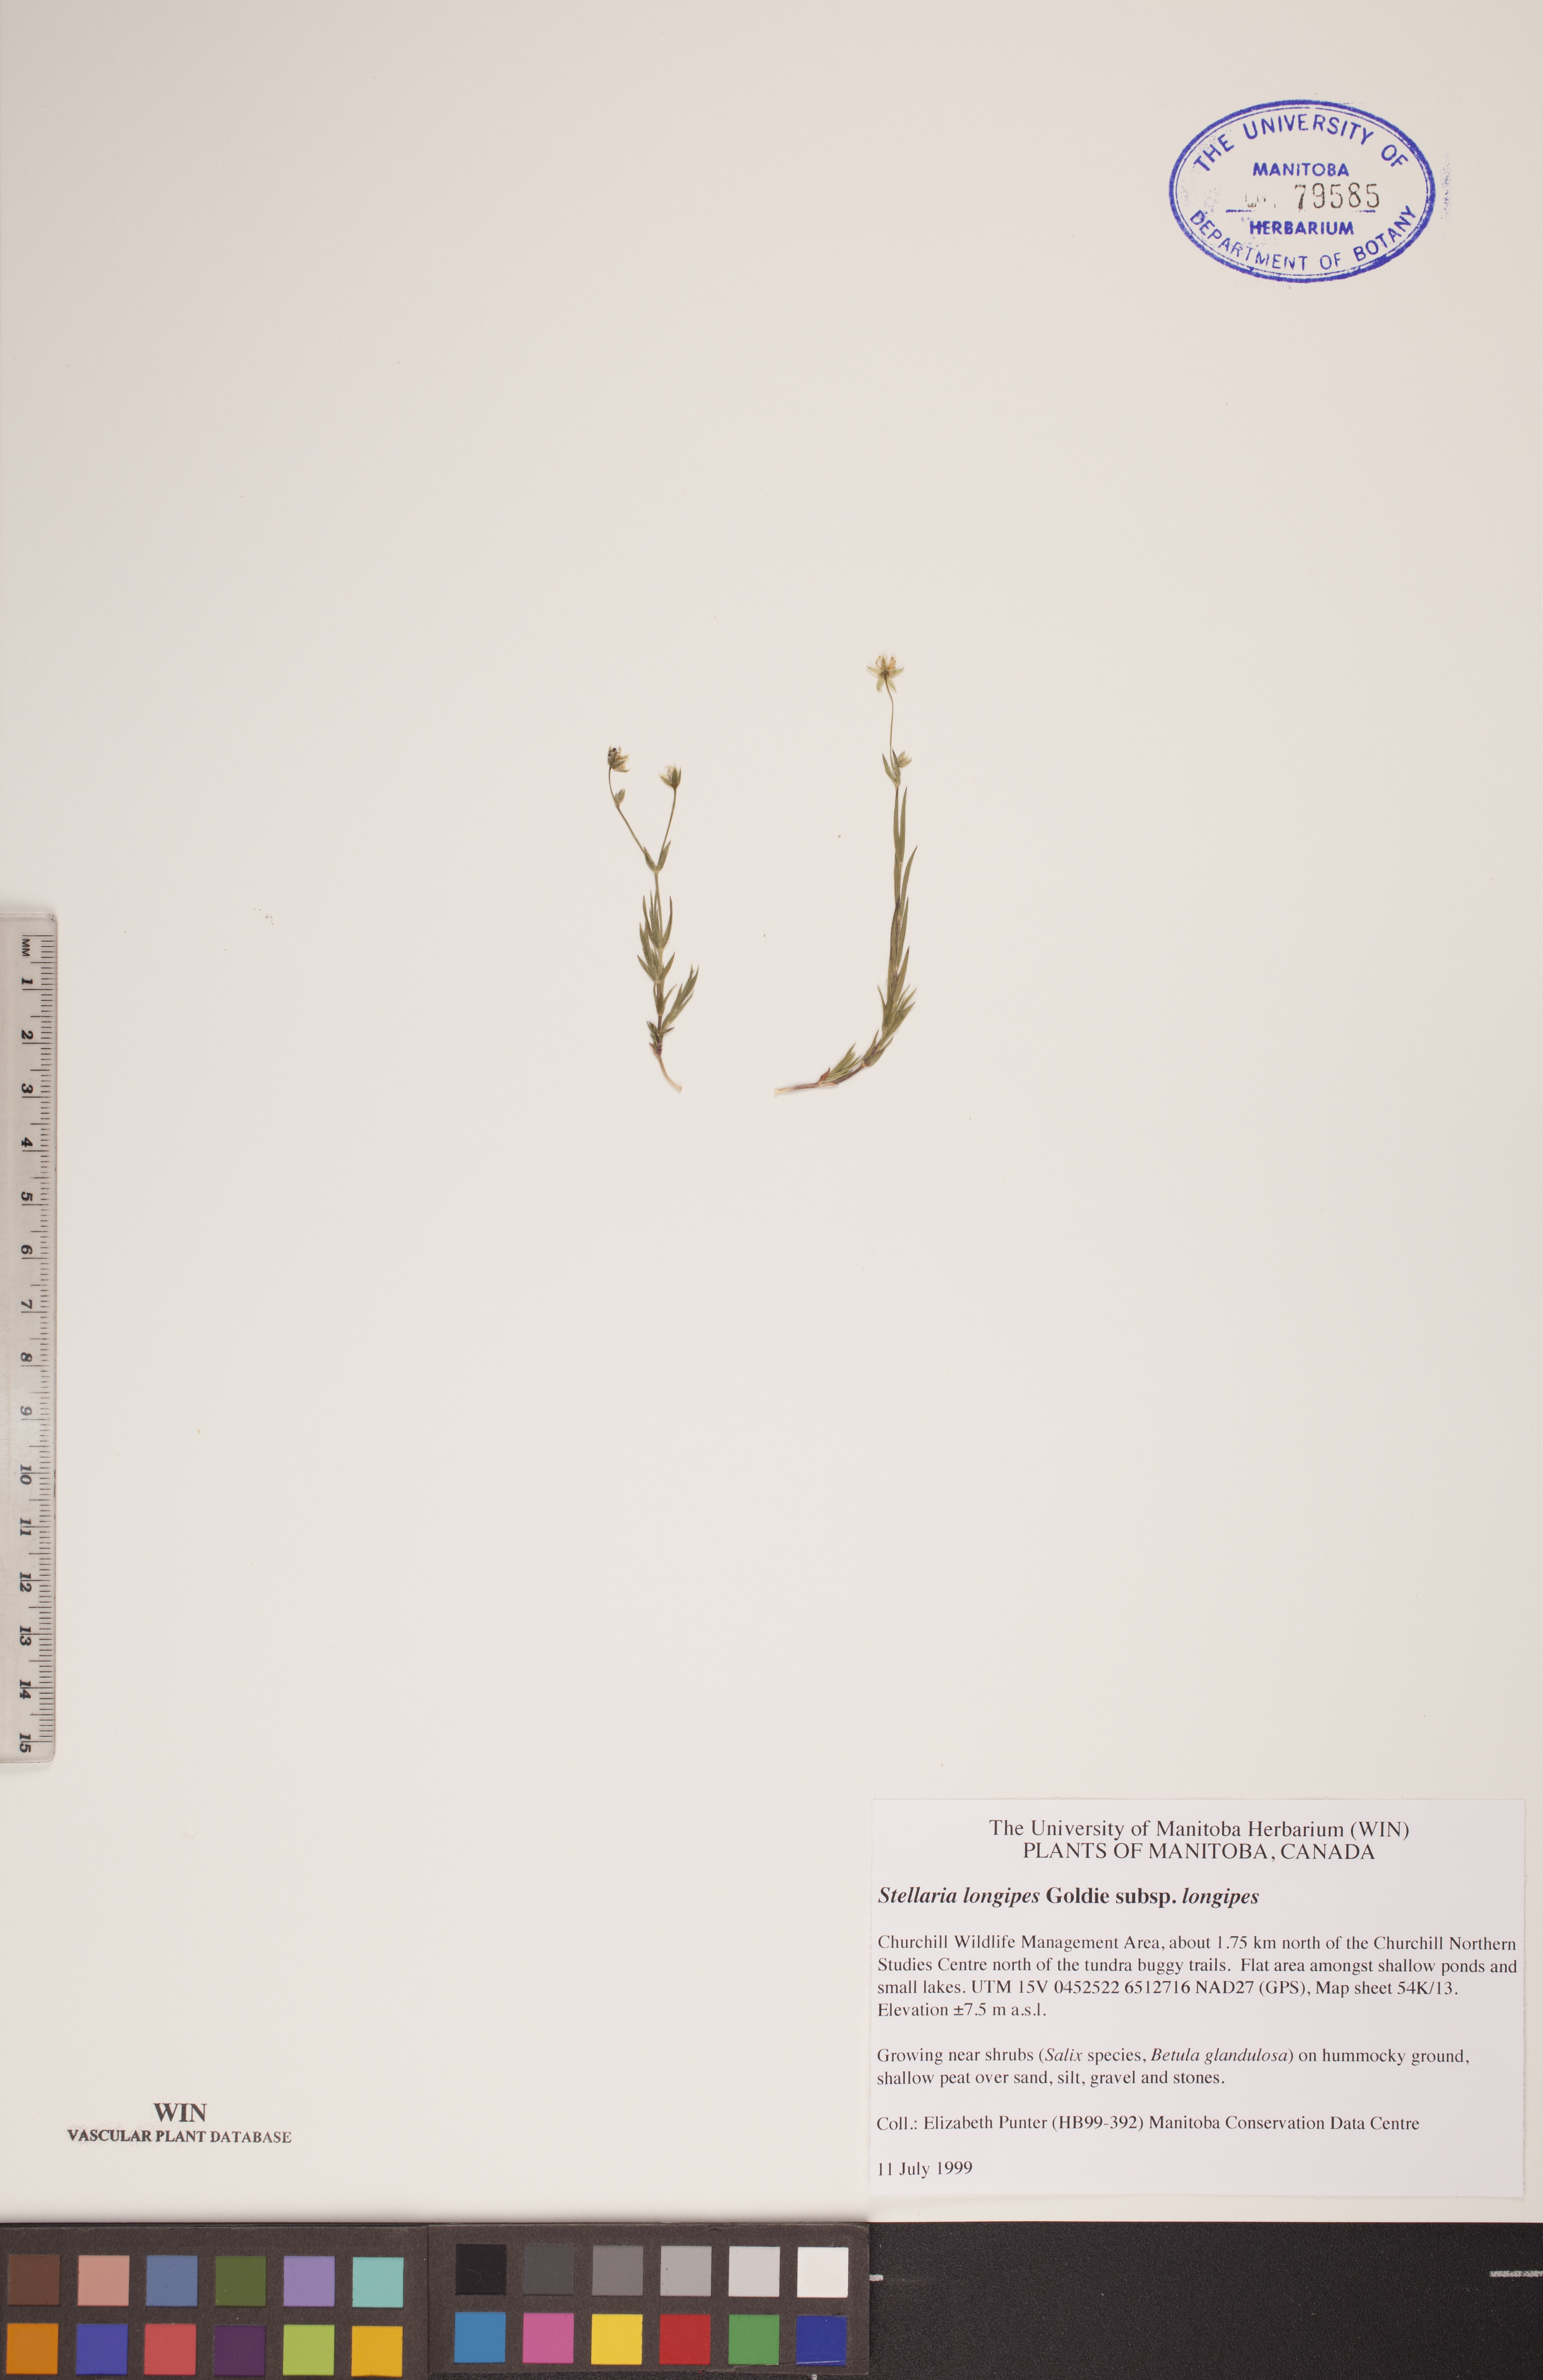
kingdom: Plantae
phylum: Tracheophyta
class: Magnoliopsida
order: Caryophyllales
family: Caryophyllaceae
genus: Stellaria
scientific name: Stellaria longipes
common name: Goldie's starwort
